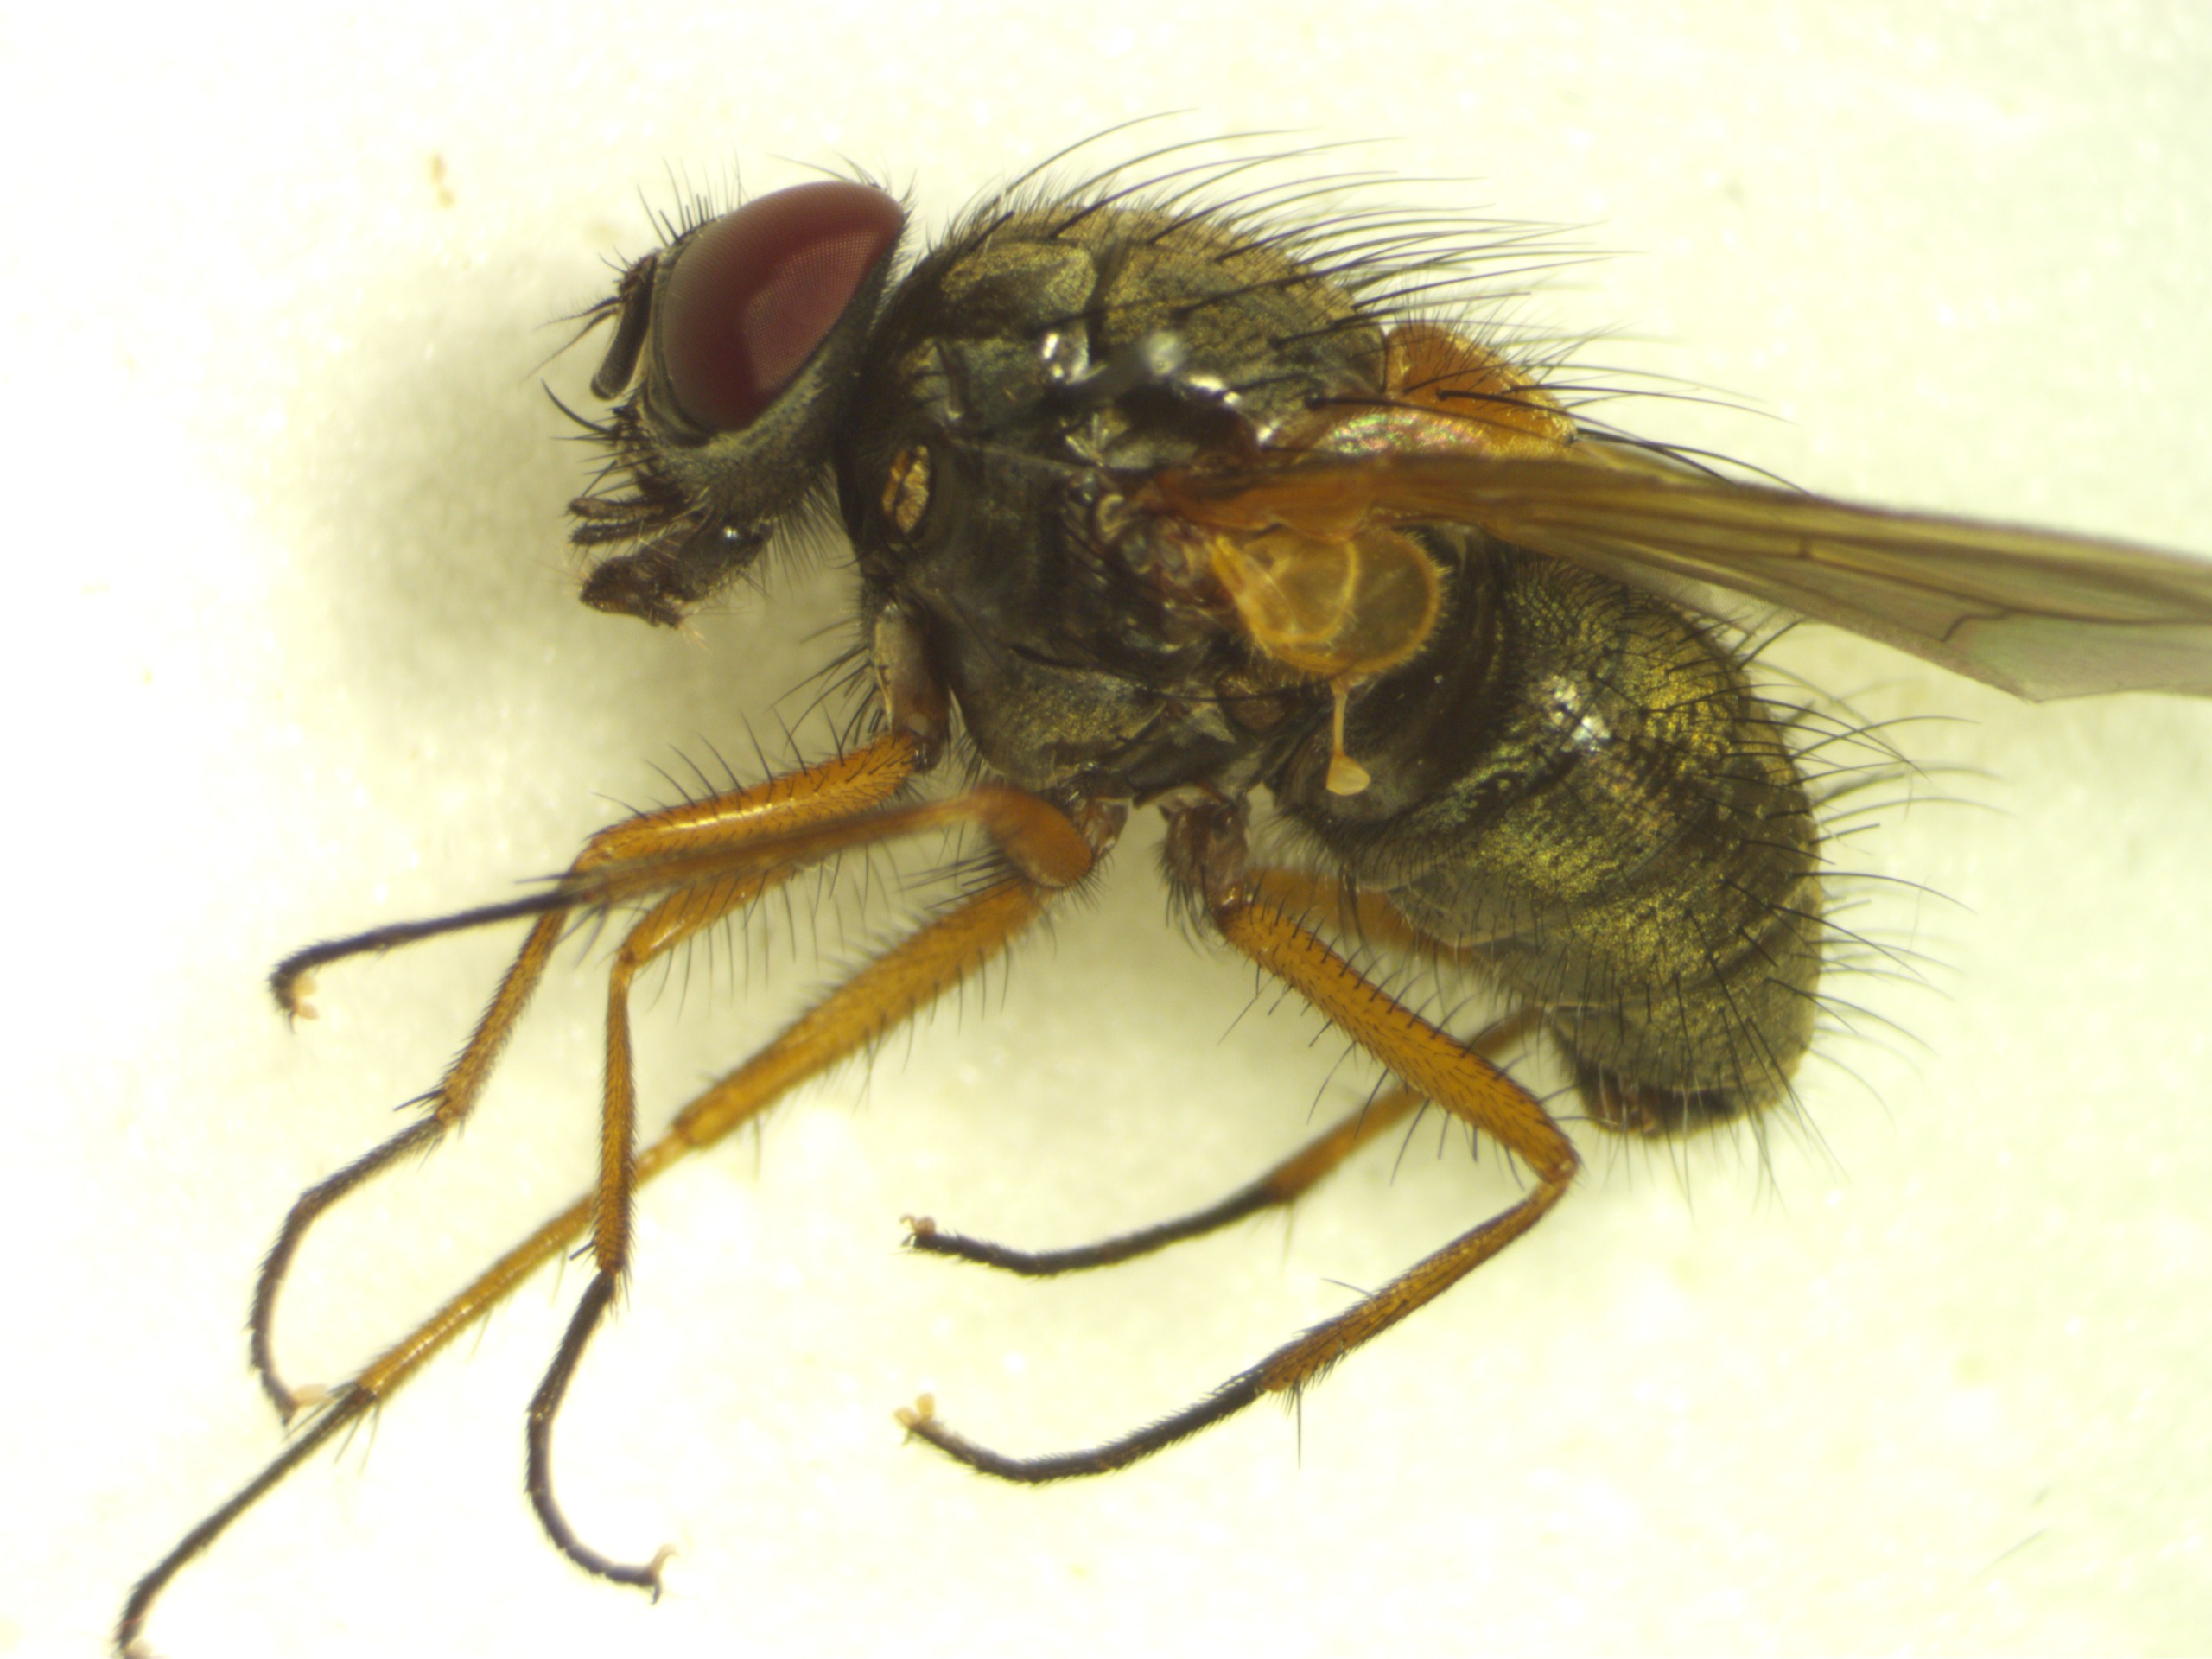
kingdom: Animalia
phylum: Arthropoda
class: Insecta
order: Diptera
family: Muscidae
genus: Mydaea
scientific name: Mydaea corni
